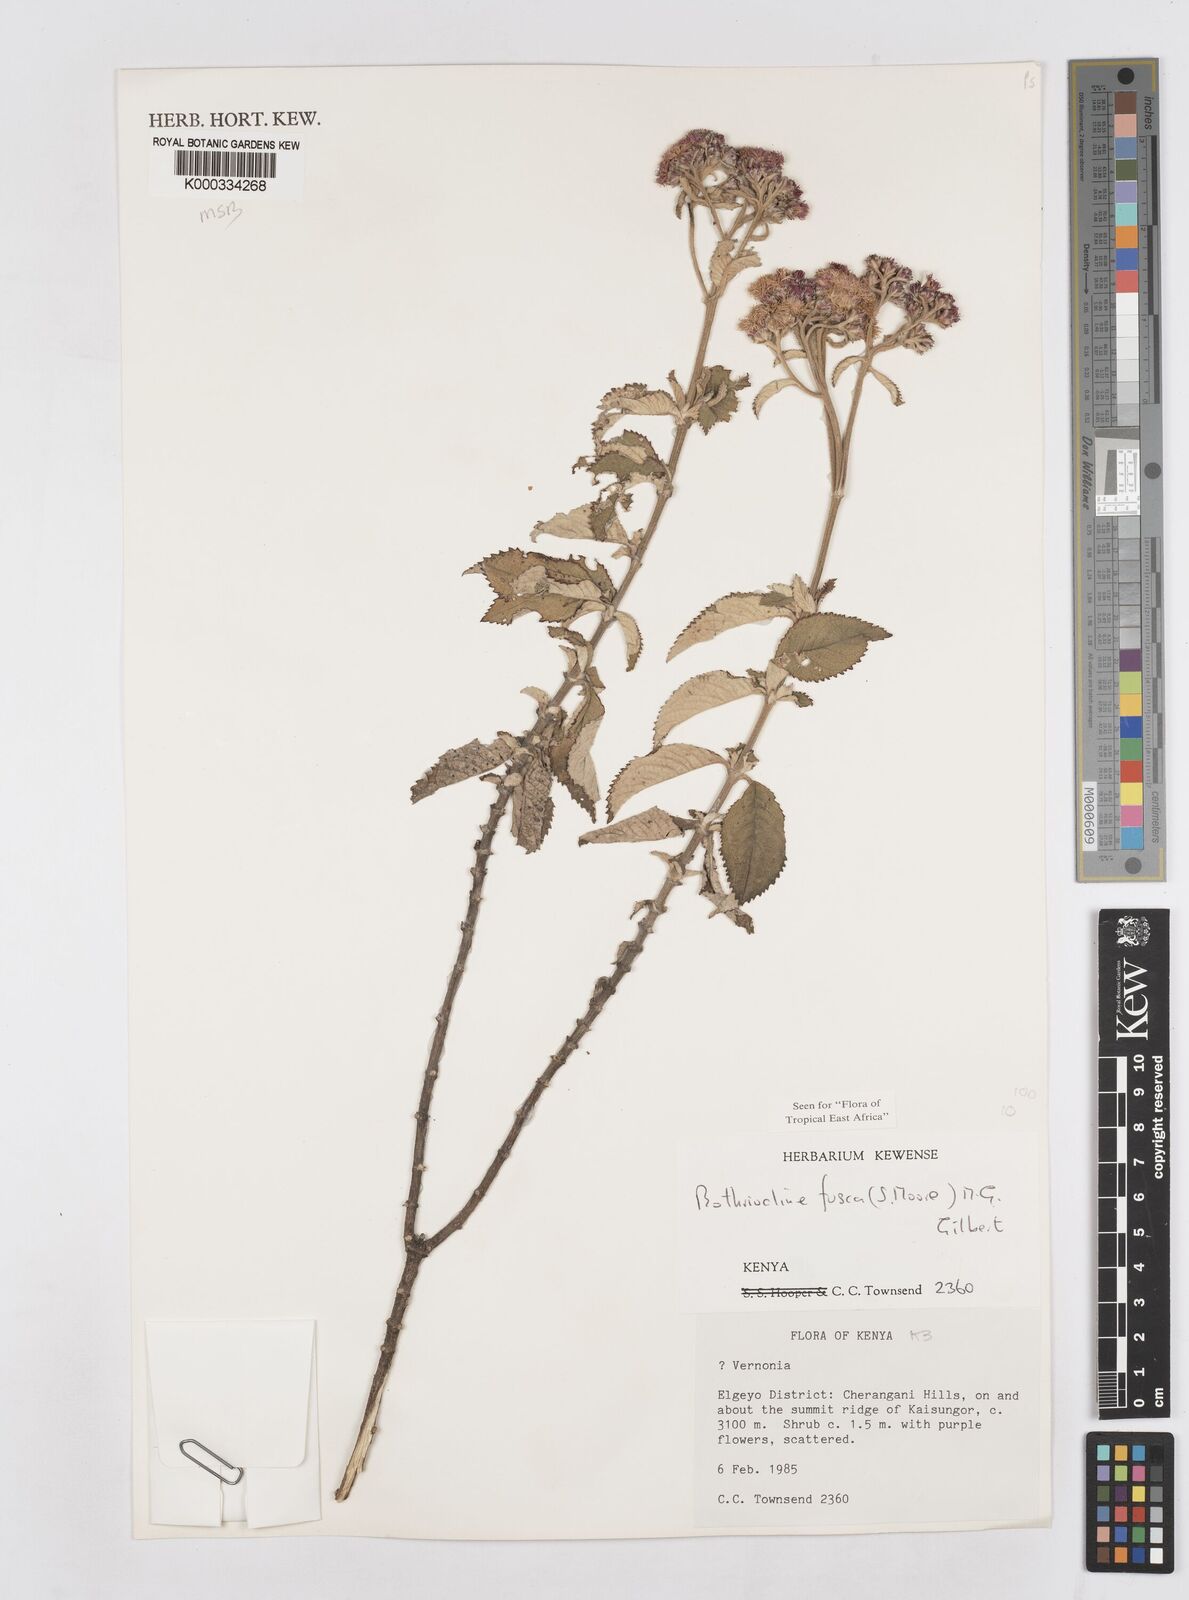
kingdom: Plantae
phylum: Tracheophyta
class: Magnoliopsida
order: Asterales
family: Asteraceae
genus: Bothriocline
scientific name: Bothriocline fusca
